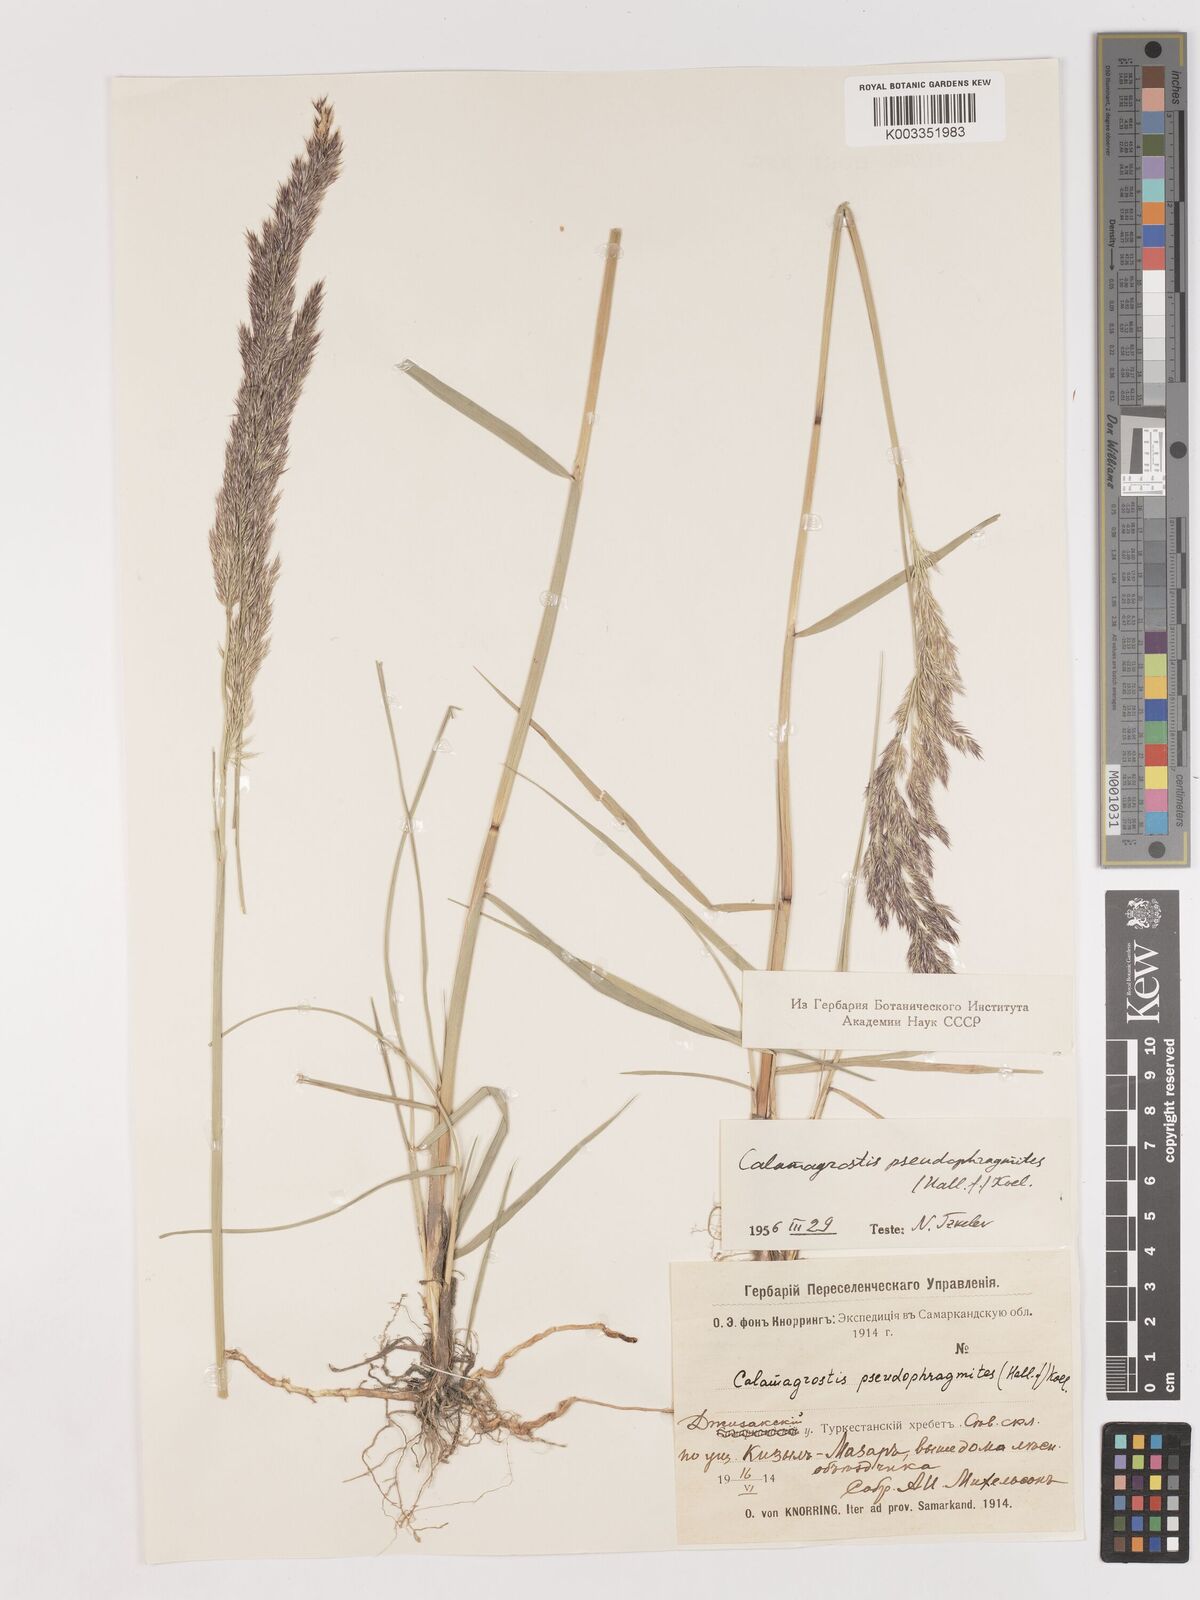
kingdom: Plantae
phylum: Tracheophyta
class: Liliopsida
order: Poales
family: Poaceae
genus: Calamagrostis
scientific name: Calamagrostis pseudophragmites
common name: Coastal small-reed
